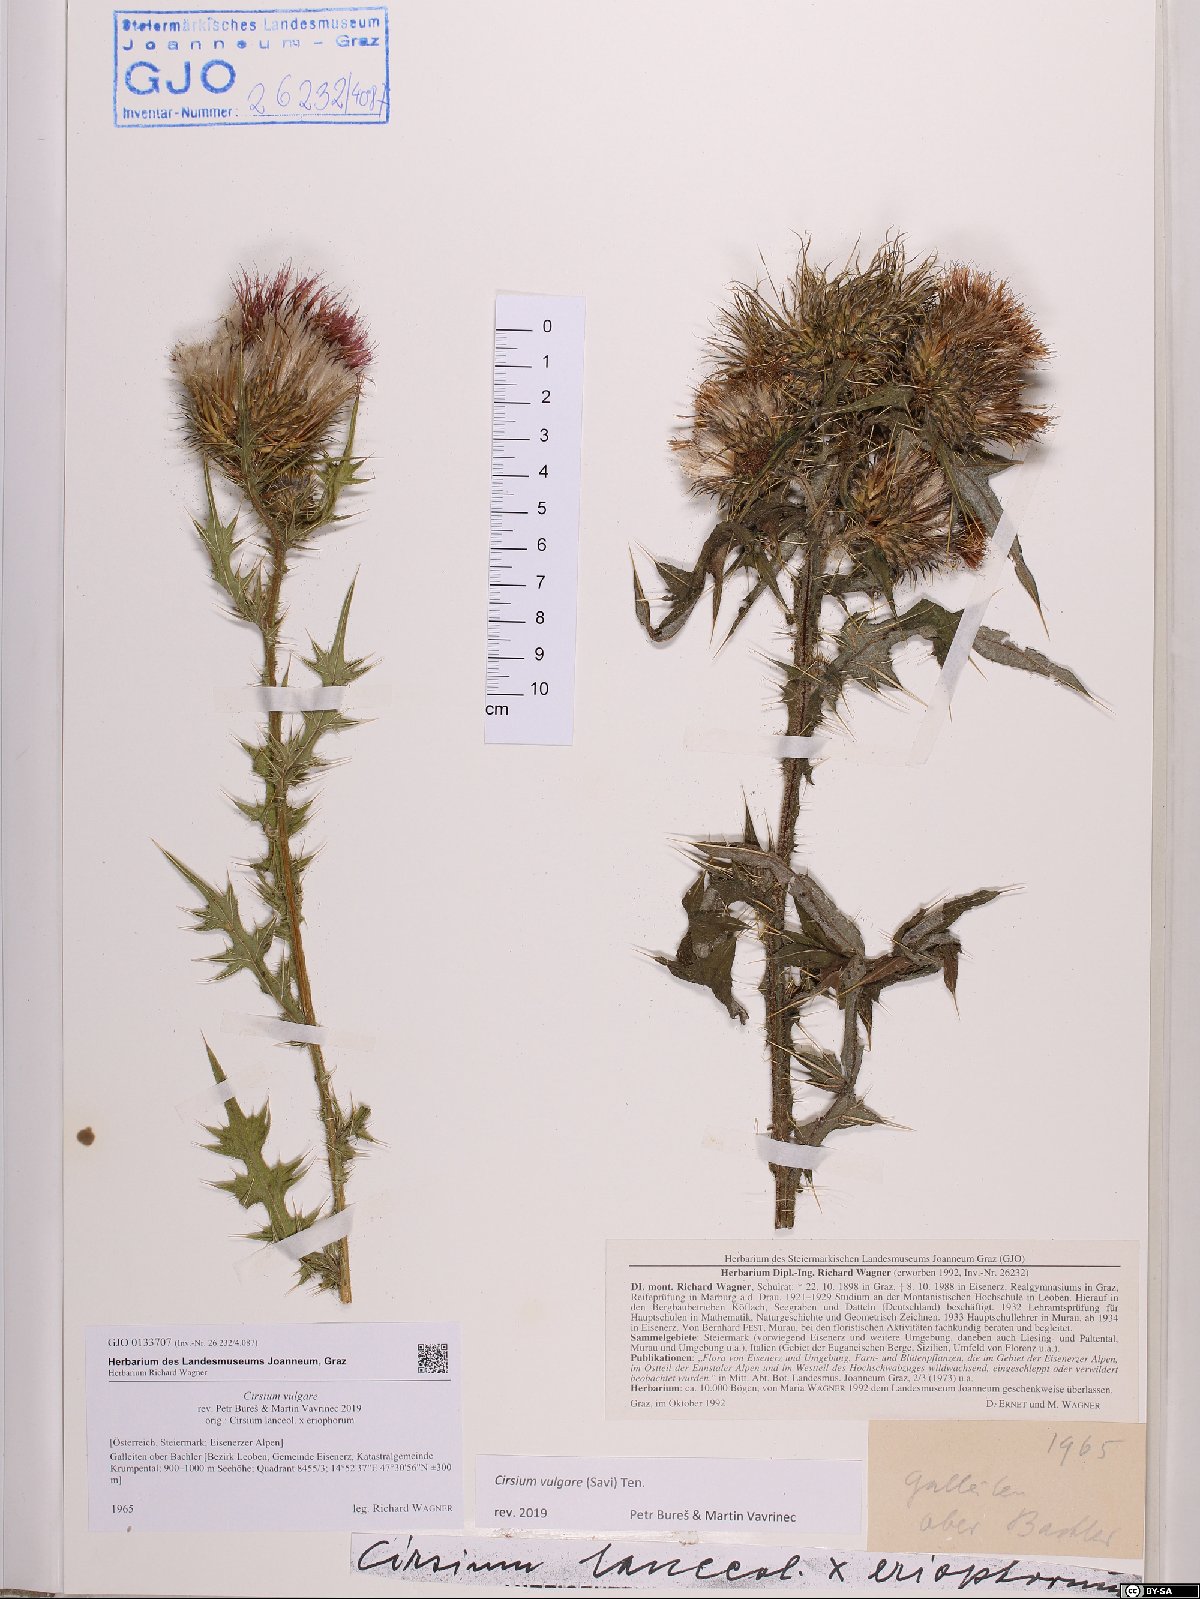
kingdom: Plantae
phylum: Tracheophyta
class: Magnoliopsida
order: Asterales
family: Asteraceae
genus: Cirsium
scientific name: Cirsium vulgare
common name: Bull thistle
